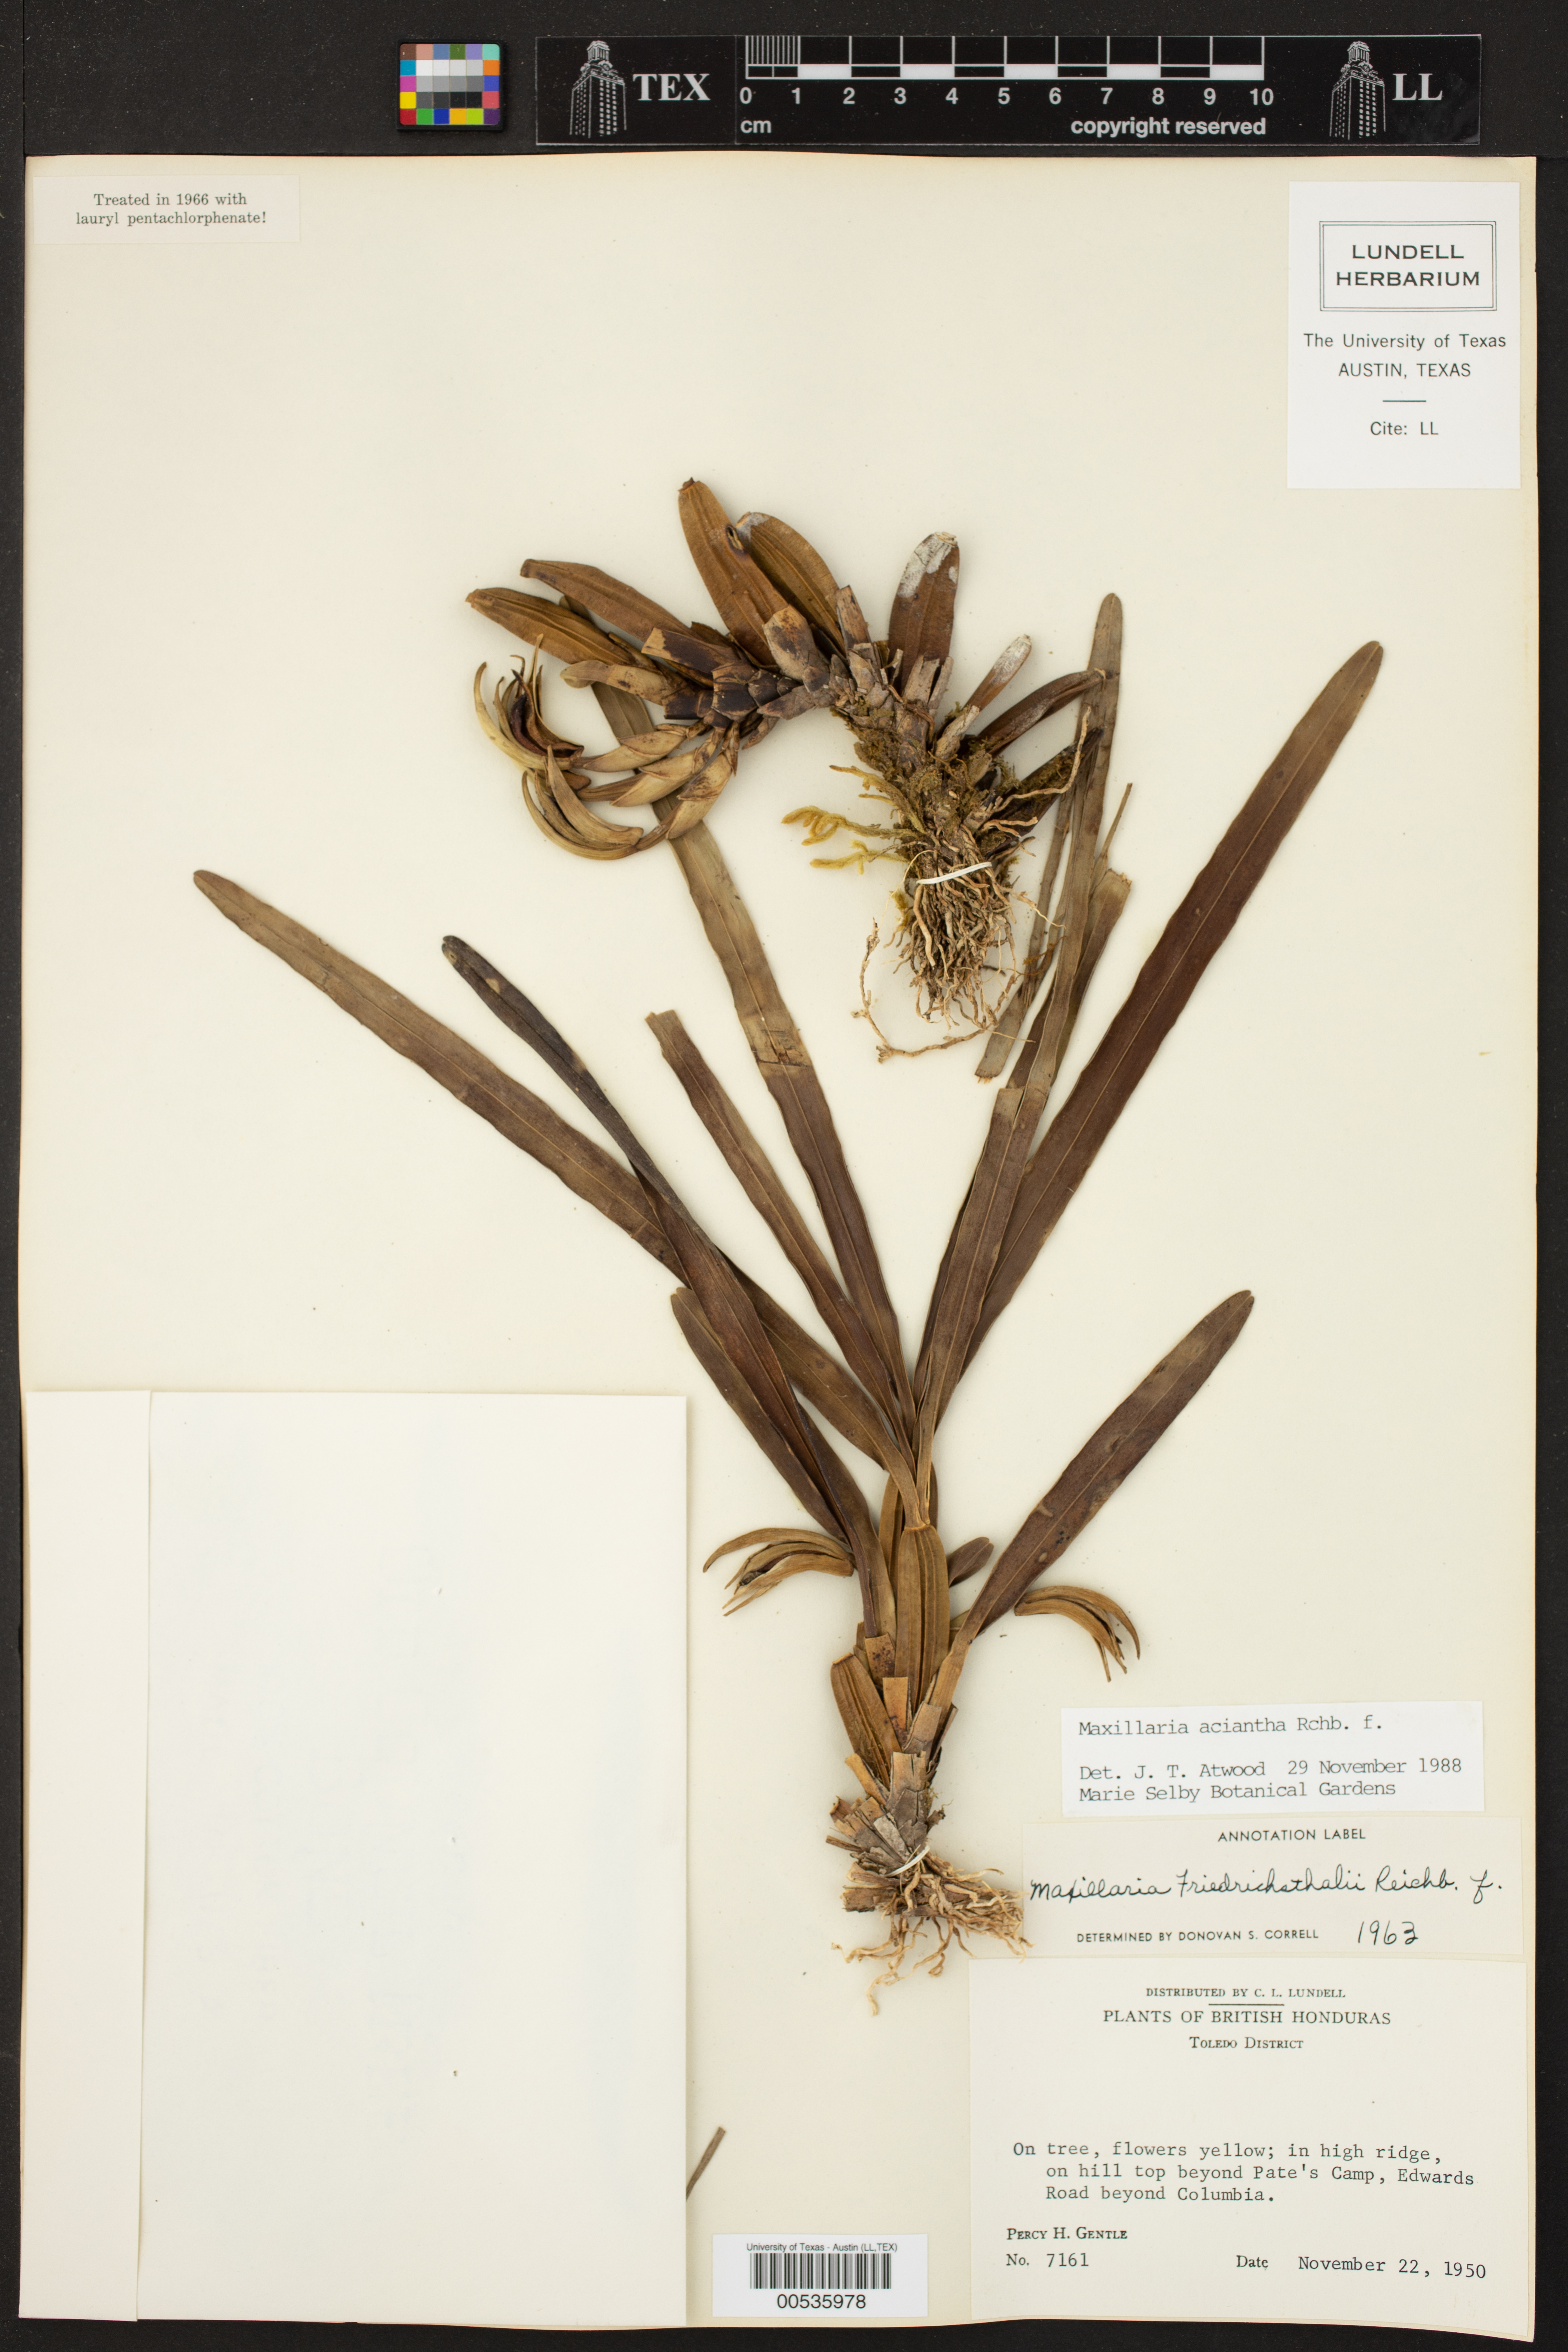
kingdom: Plantae
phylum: Tracheophyta
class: Liliopsida
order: Asparagales
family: Orchidaceae
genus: Maxillaria
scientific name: Maxillaria aciantha
